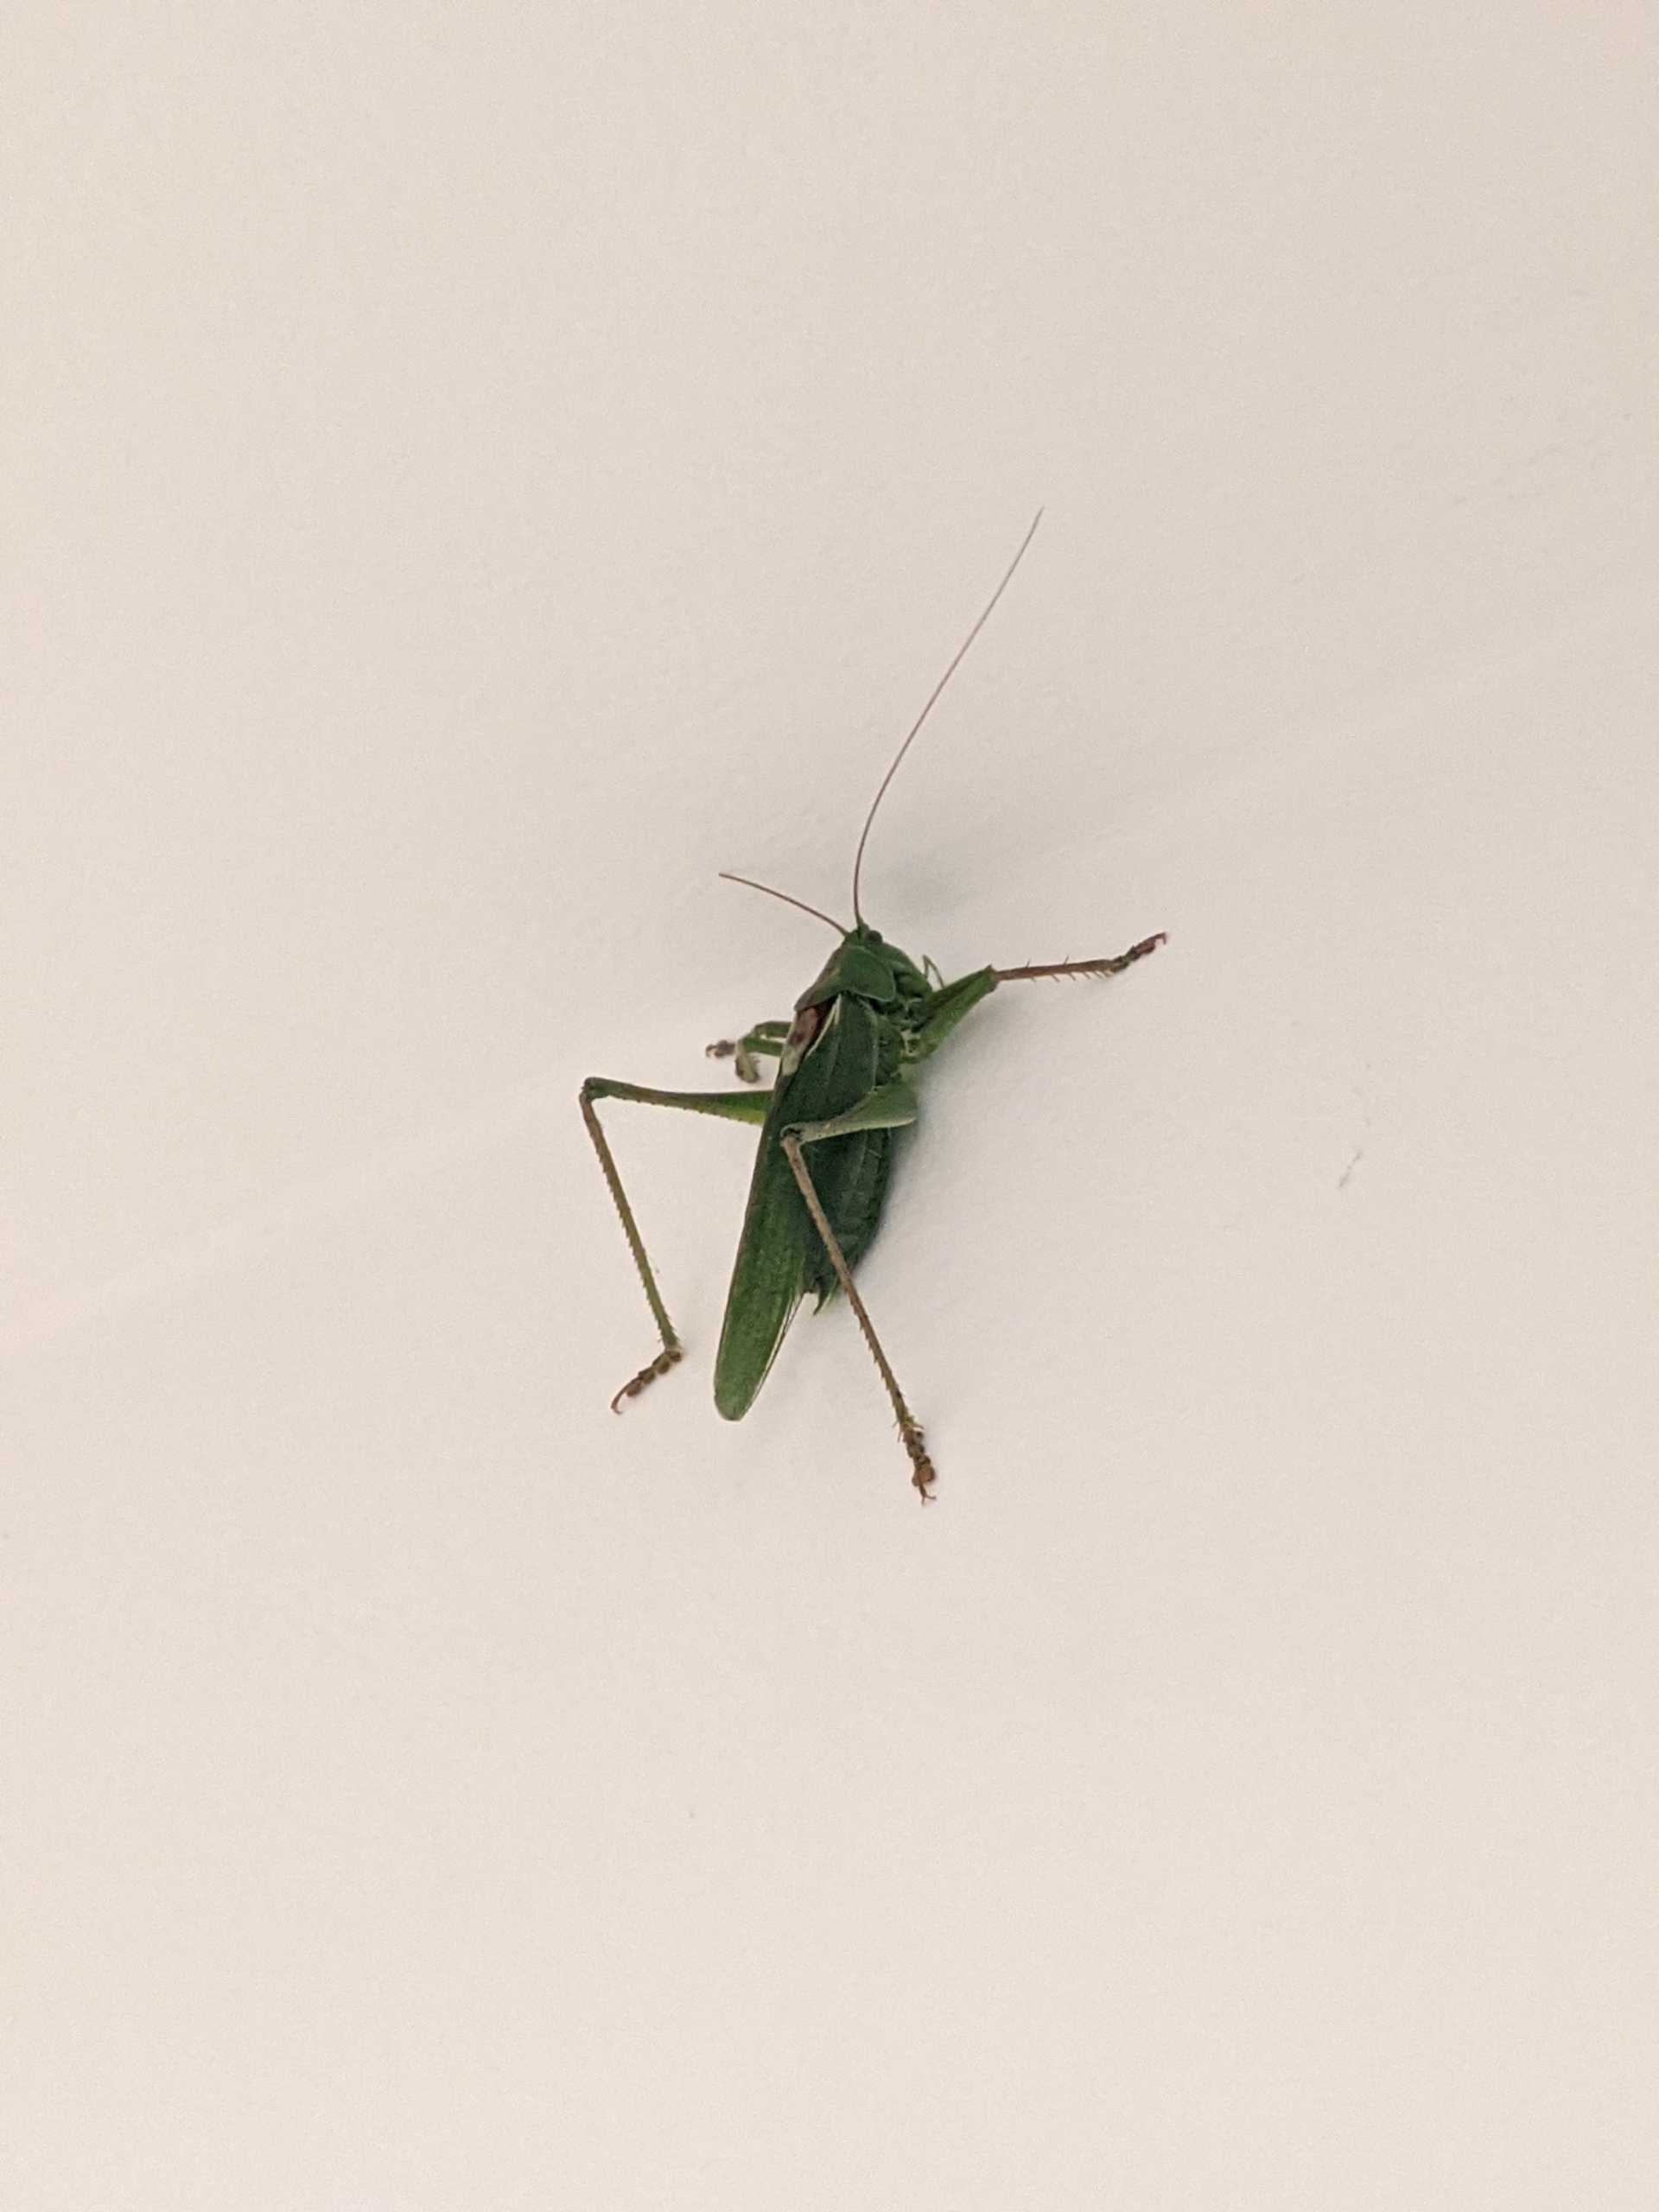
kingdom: Animalia
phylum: Arthropoda
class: Insecta
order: Orthoptera
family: Tettigoniidae
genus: Tettigonia
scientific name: Tettigonia viridissima
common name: Stor grøn løvgræshoppe
